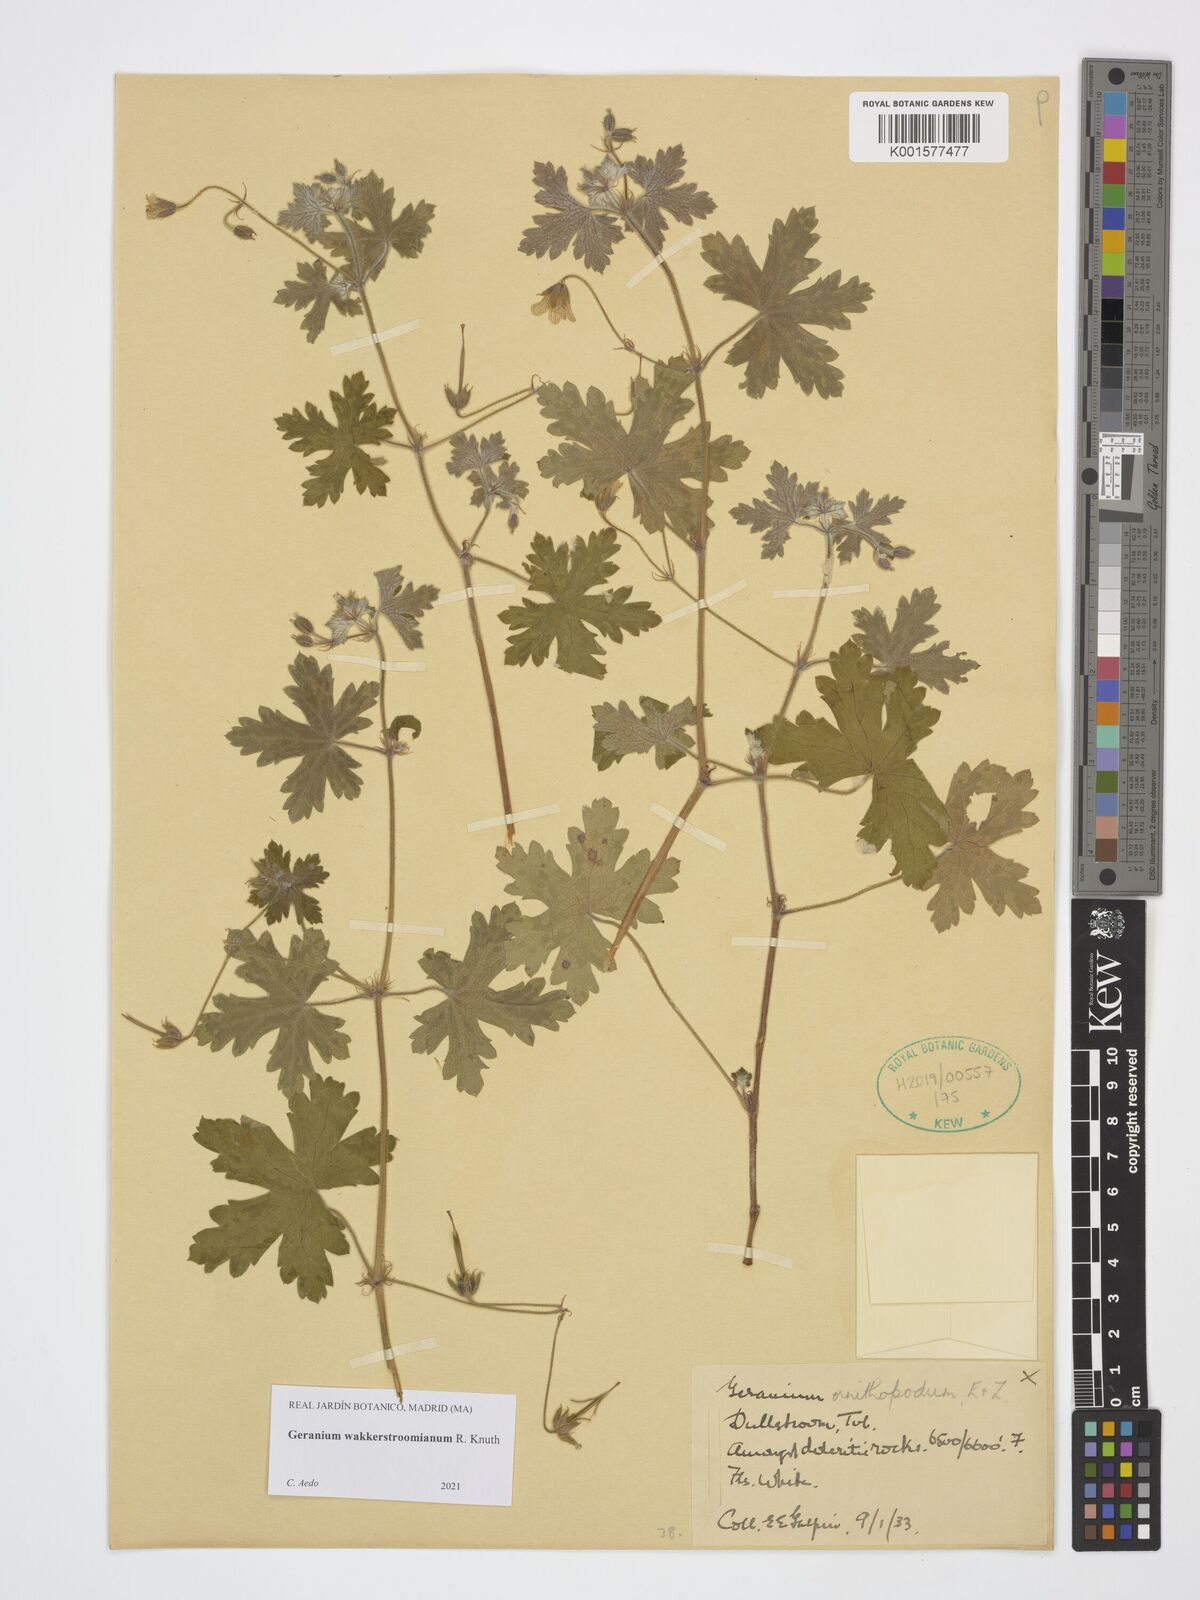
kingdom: Plantae
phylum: Tracheophyta
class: Magnoliopsida
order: Geraniales
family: Geraniaceae
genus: Geranium
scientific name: Geranium wakkerstroomianum
